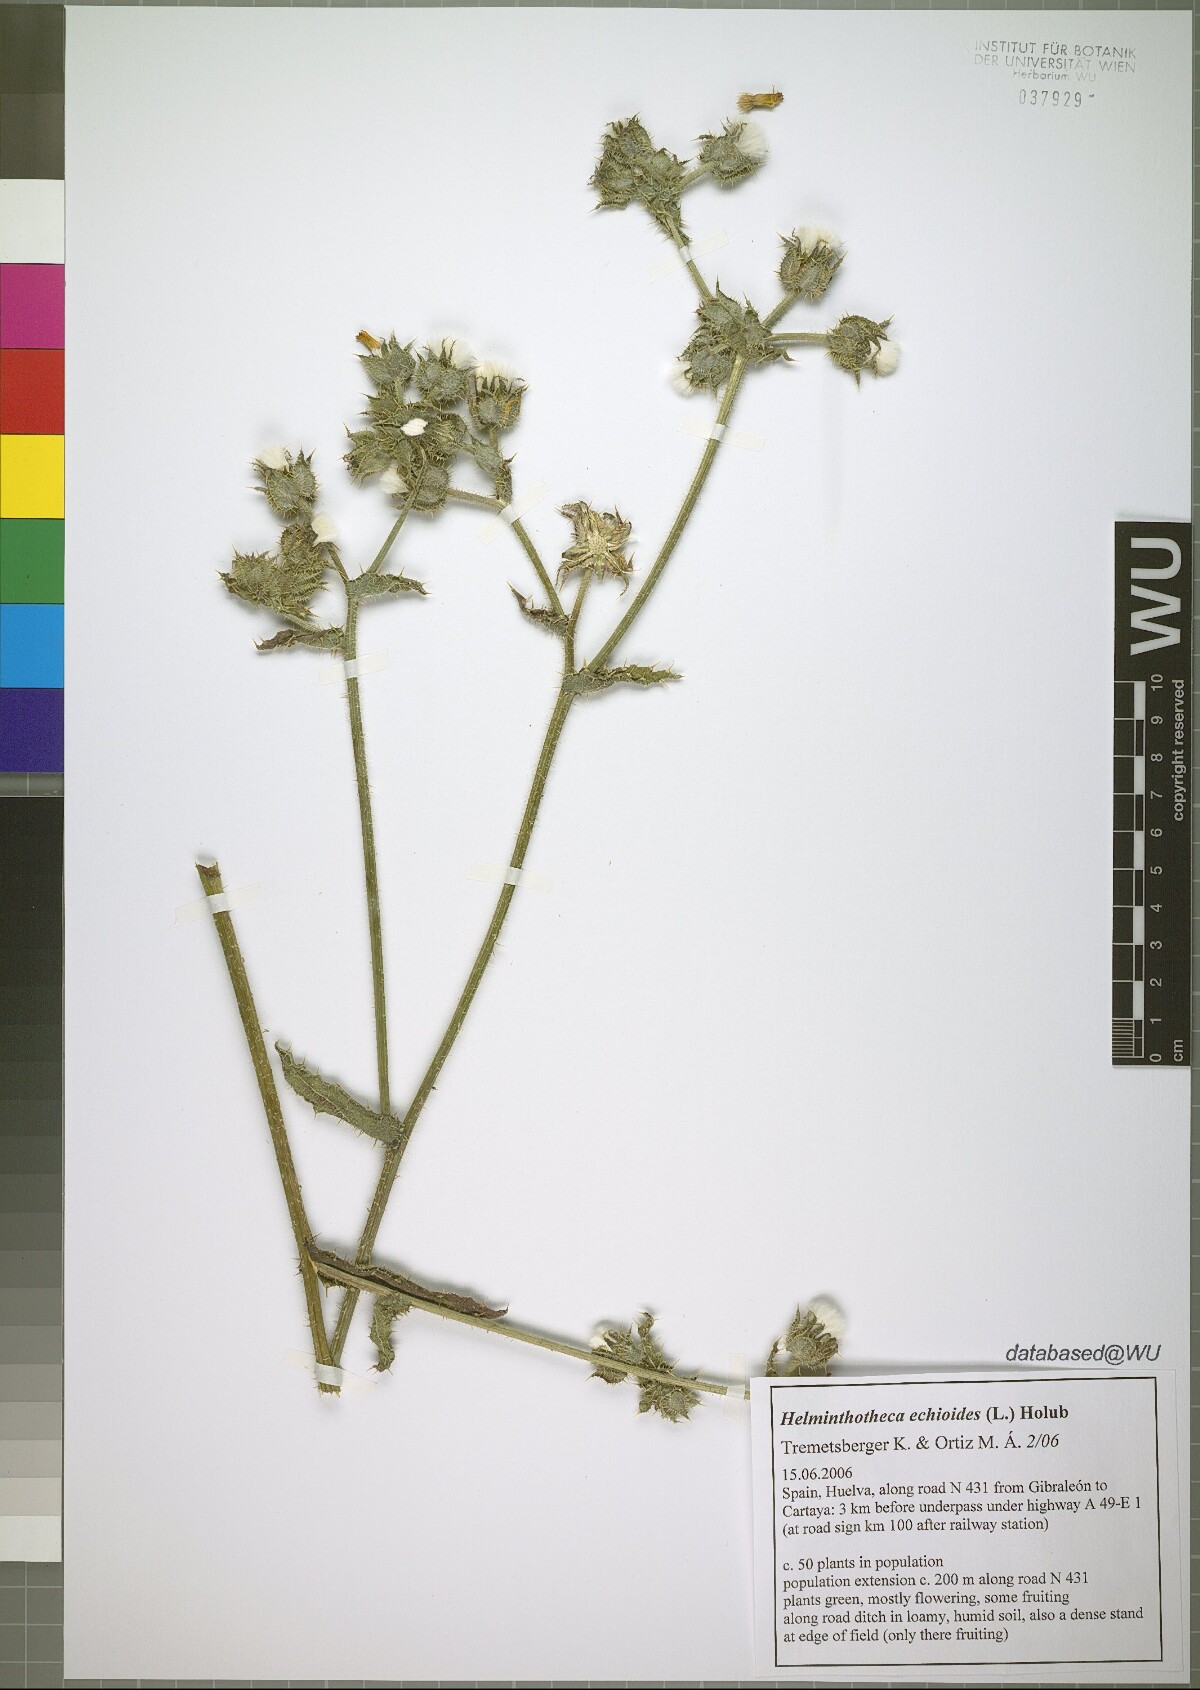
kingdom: Plantae
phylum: Tracheophyta
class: Magnoliopsida
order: Asterales
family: Asteraceae
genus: Helminthotheca
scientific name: Helminthotheca echioides
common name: Ox-tongue
